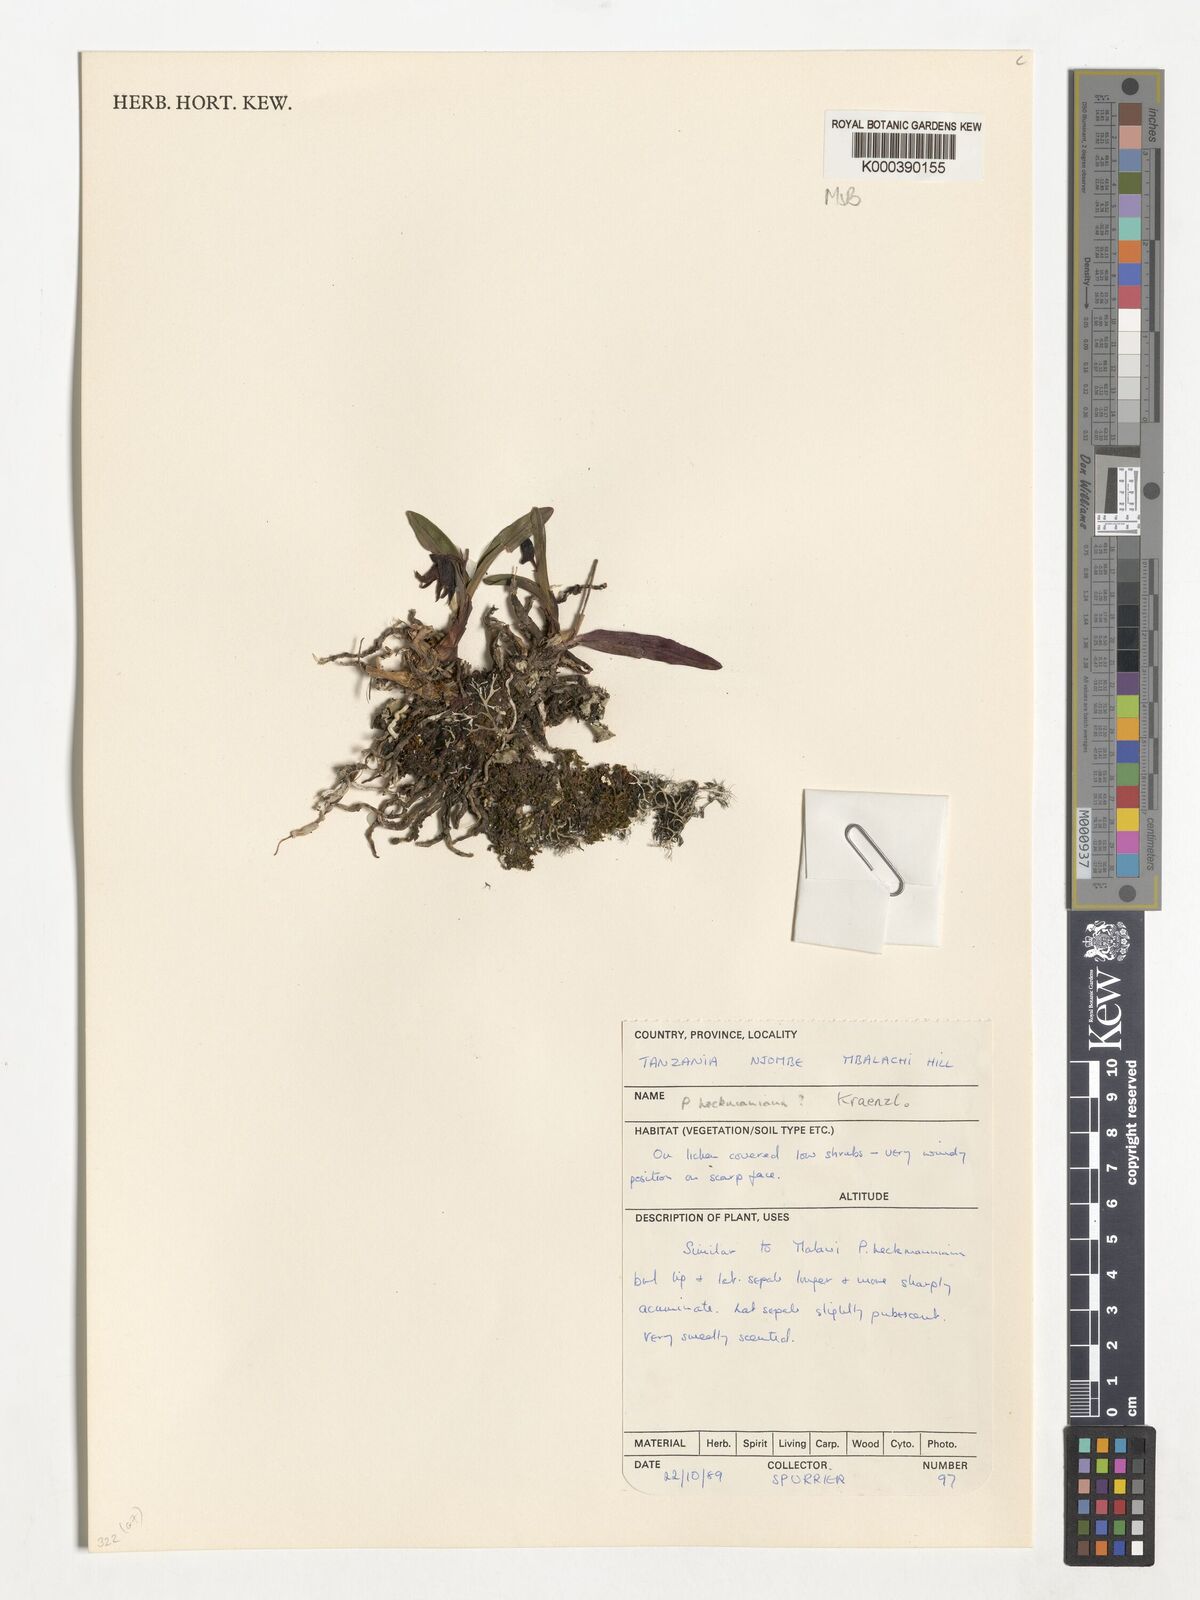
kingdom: Plantae
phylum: Tracheophyta
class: Liliopsida
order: Asparagales
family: Orchidaceae
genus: Polystachya
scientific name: Polystachya heckmanniana
